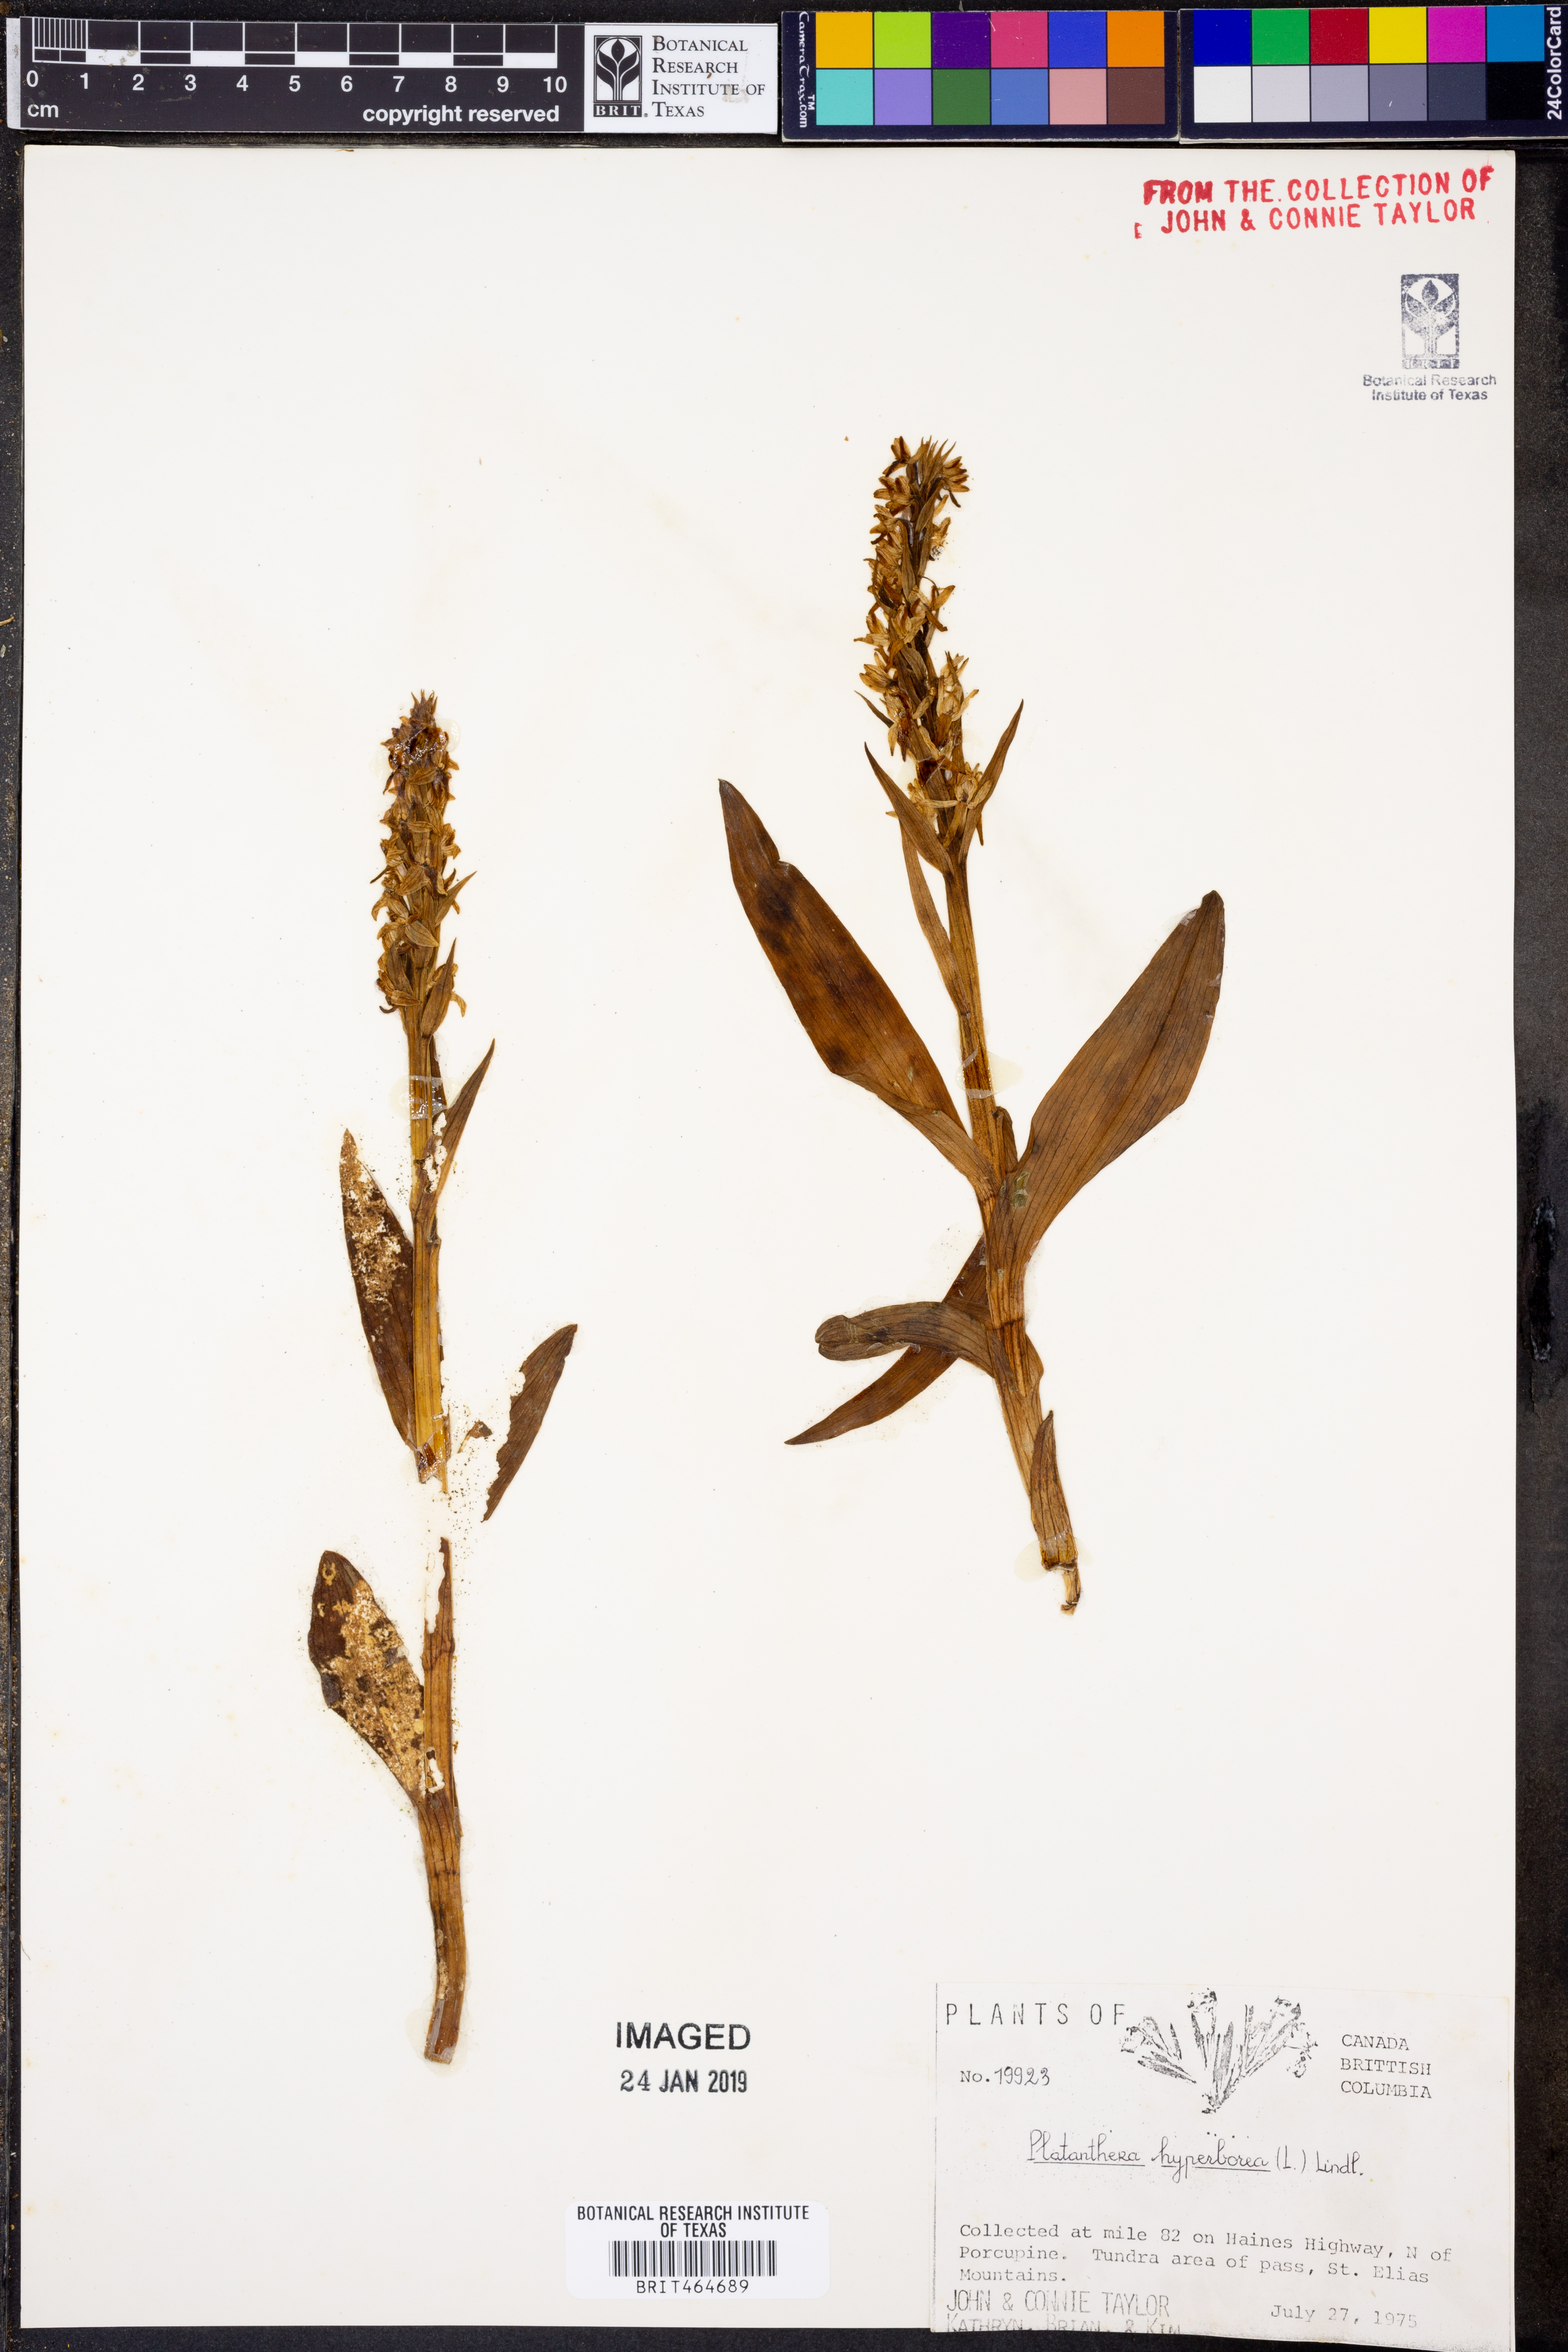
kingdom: Plantae
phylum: Tracheophyta
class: Liliopsida
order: Asparagales
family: Orchidaceae
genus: Platanthera
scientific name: Platanthera hyperborea
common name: Northern green orchid
